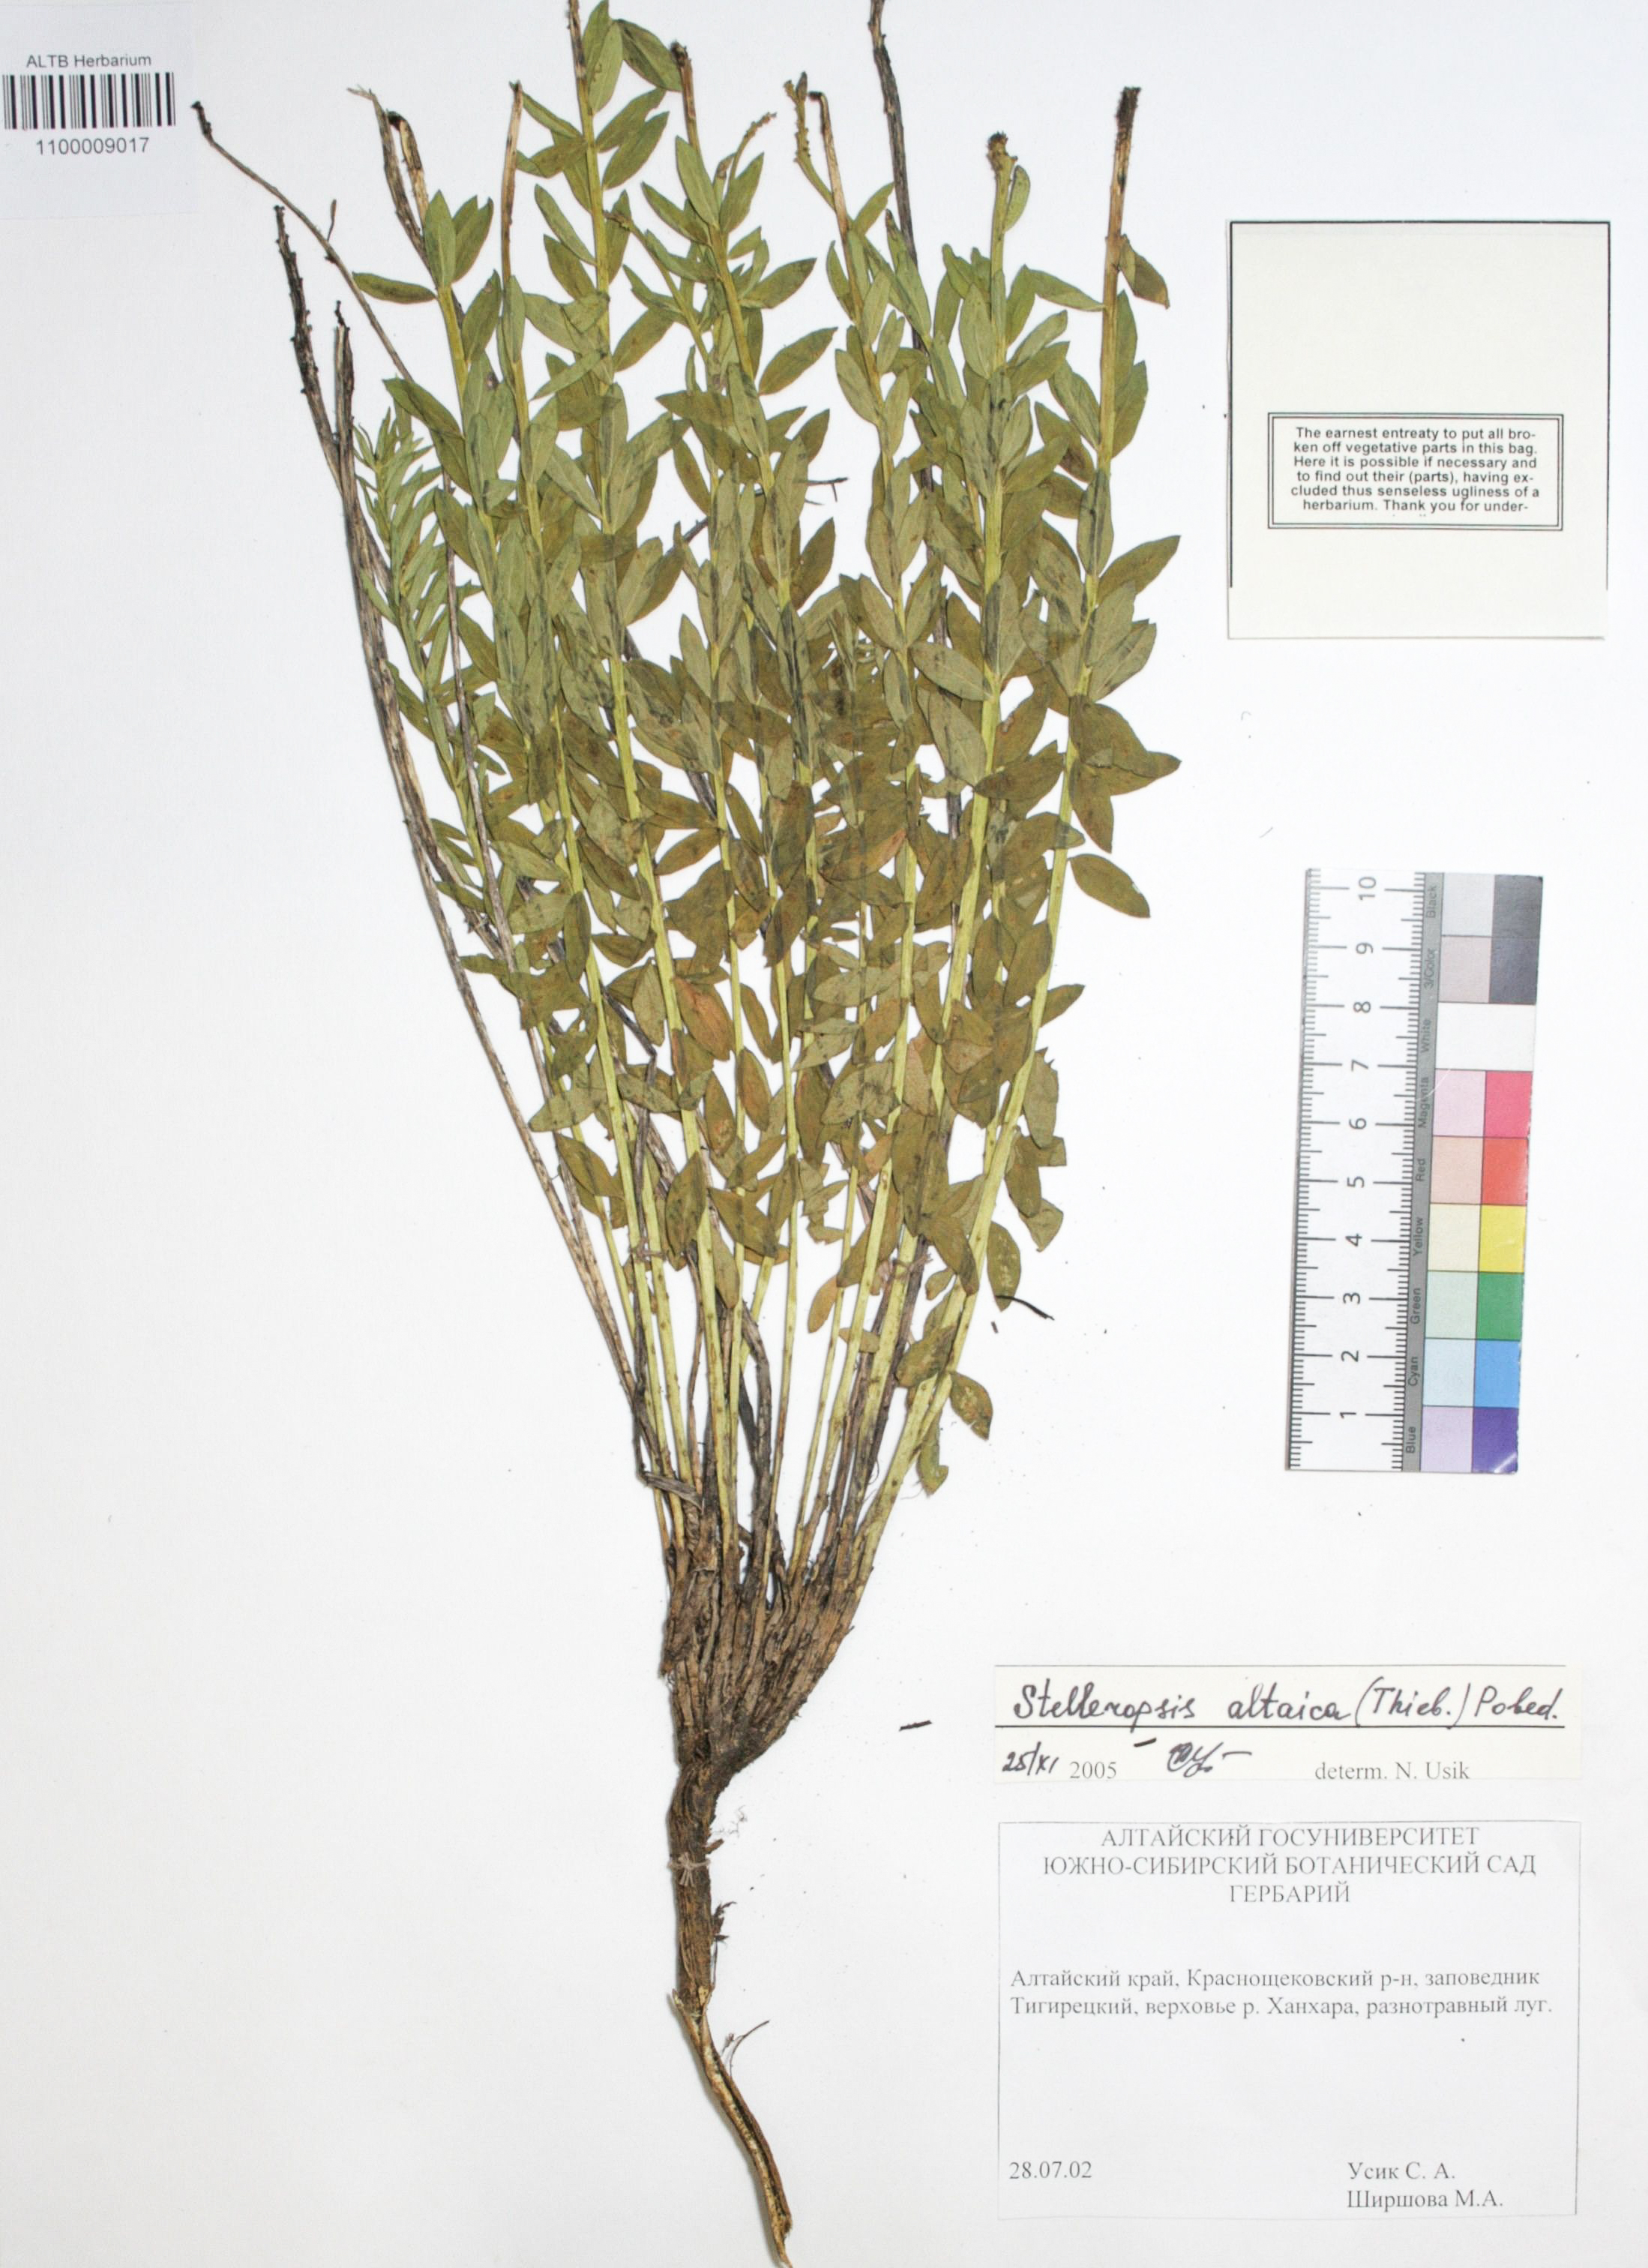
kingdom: Plantae
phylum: Tracheophyta
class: Magnoliopsida
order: Malvales
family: Thymelaeaceae
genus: Diarthron
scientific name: Diarthron altaicum
